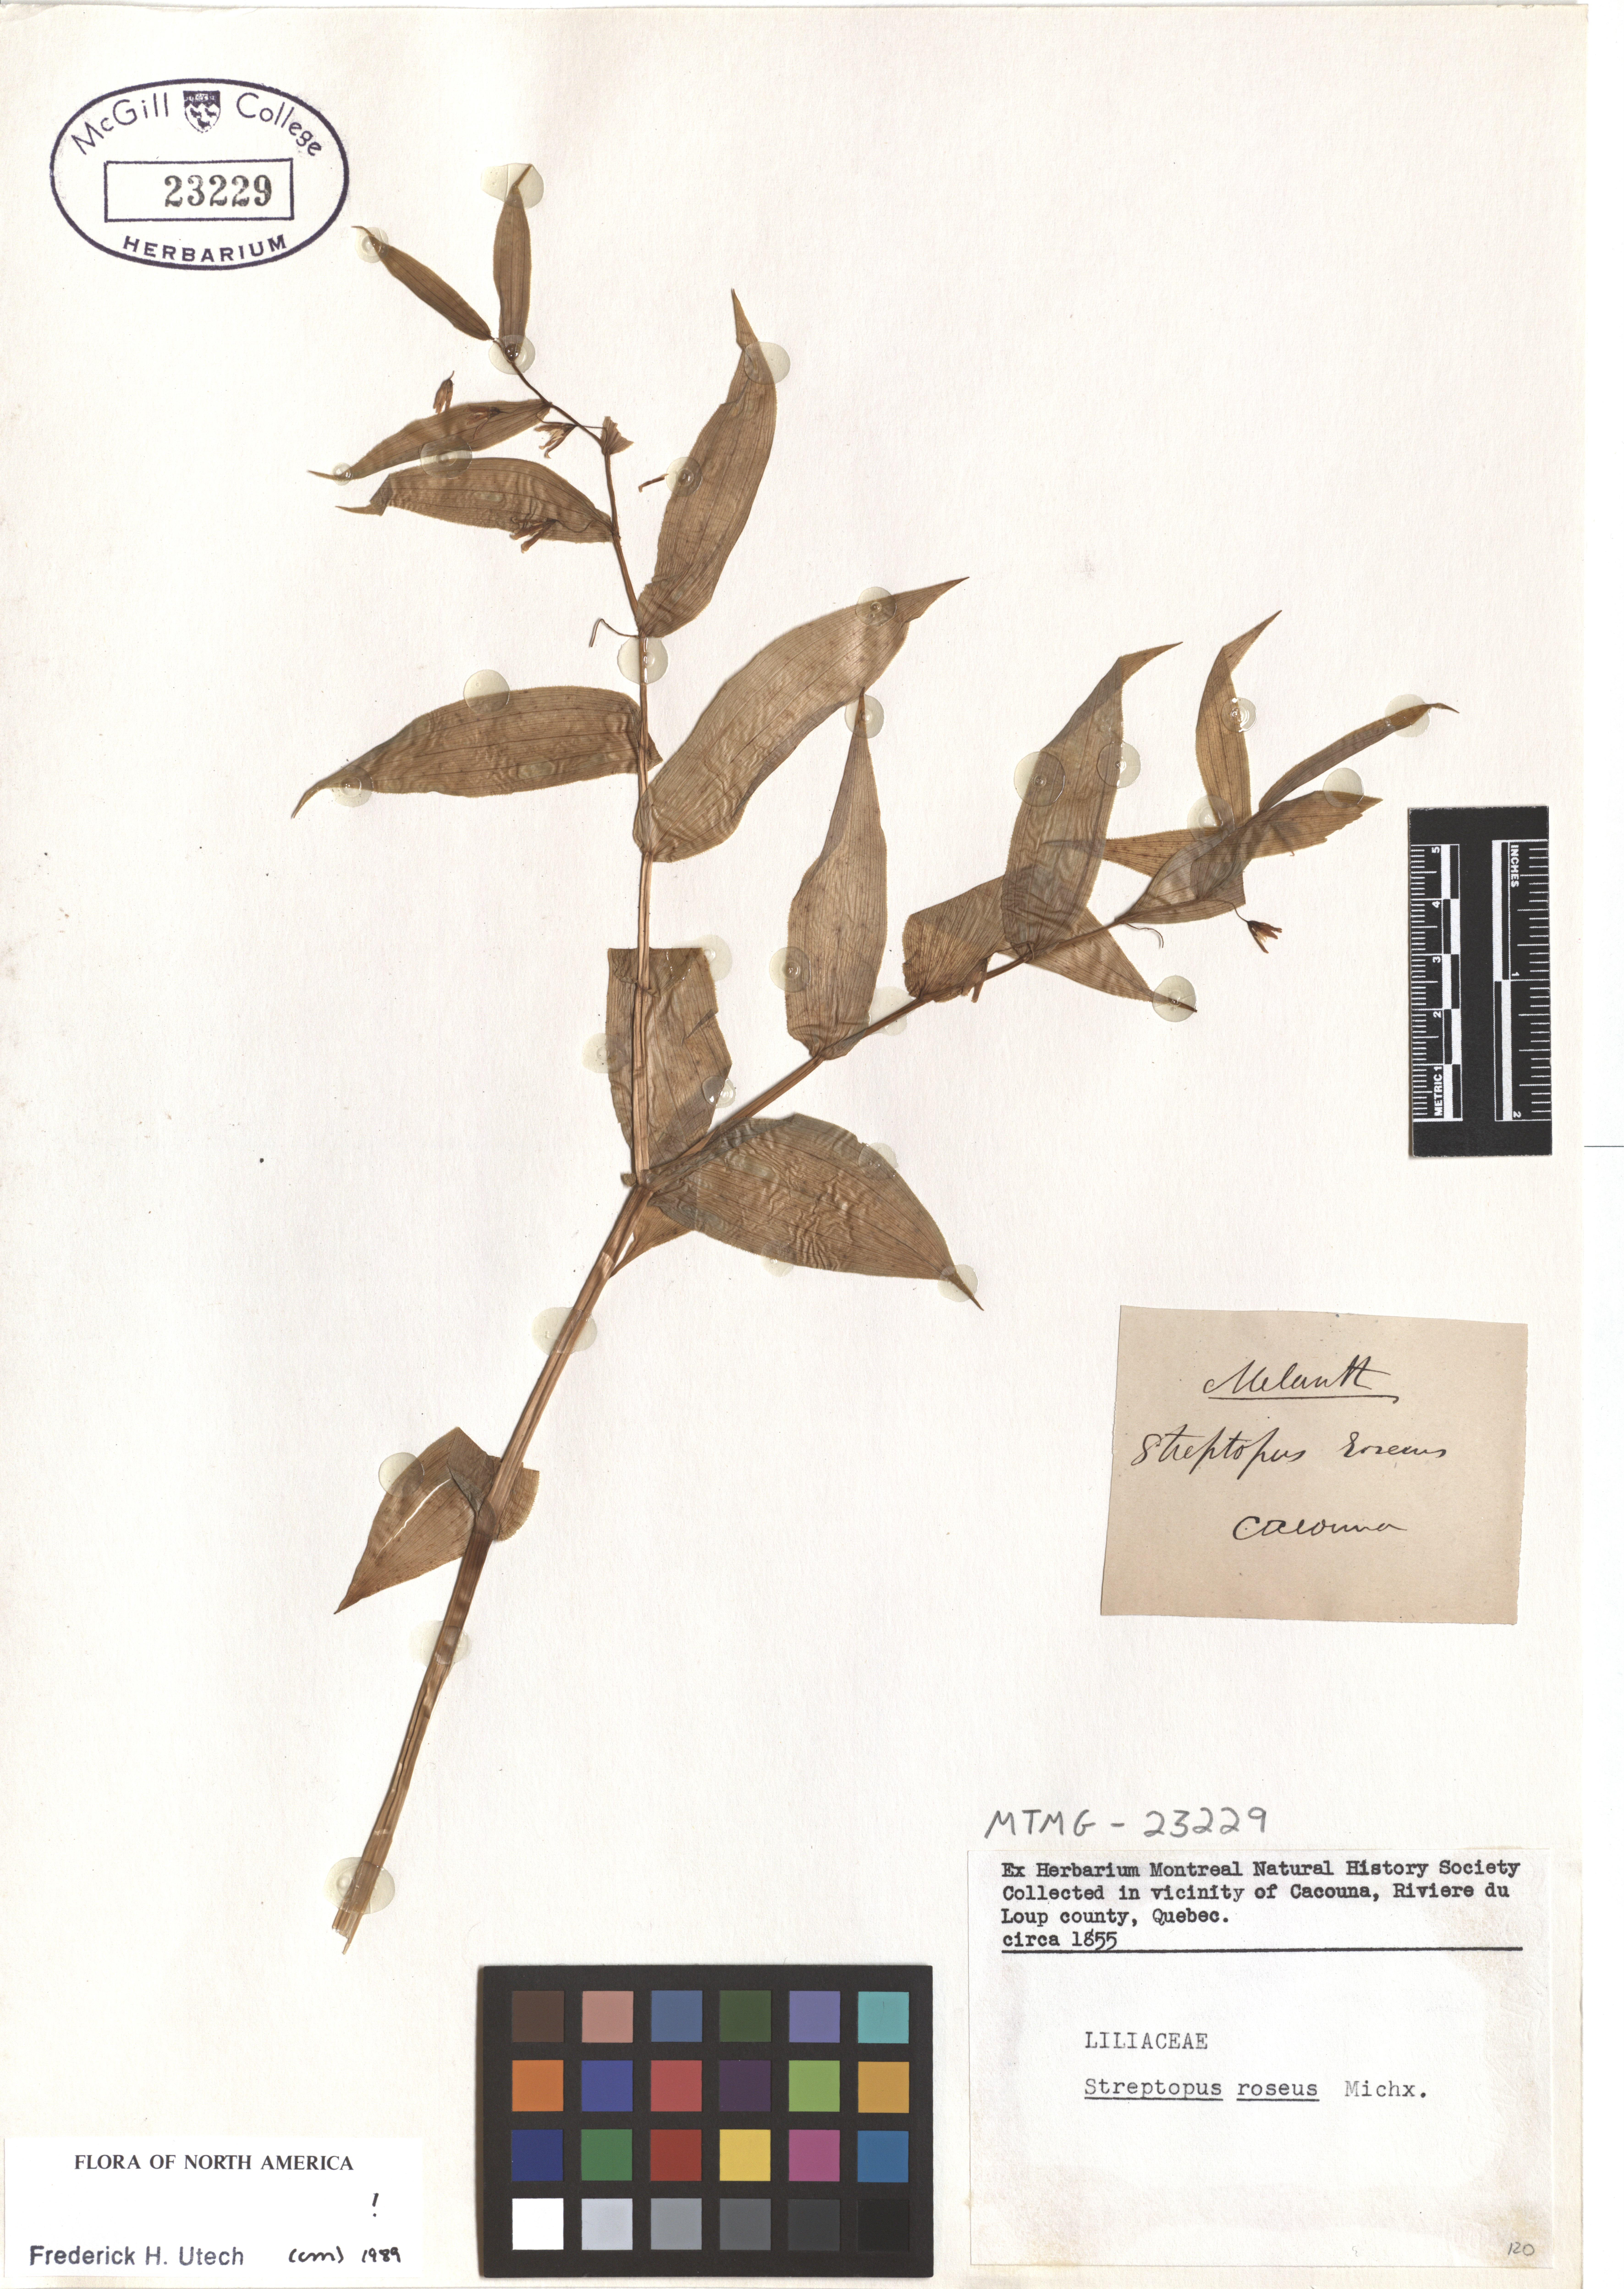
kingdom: Plantae
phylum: Tracheophyta
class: Liliopsida
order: Liliales
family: Liliaceae
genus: Streptopus
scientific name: Streptopus lanceolatus
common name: Rose mandarin
